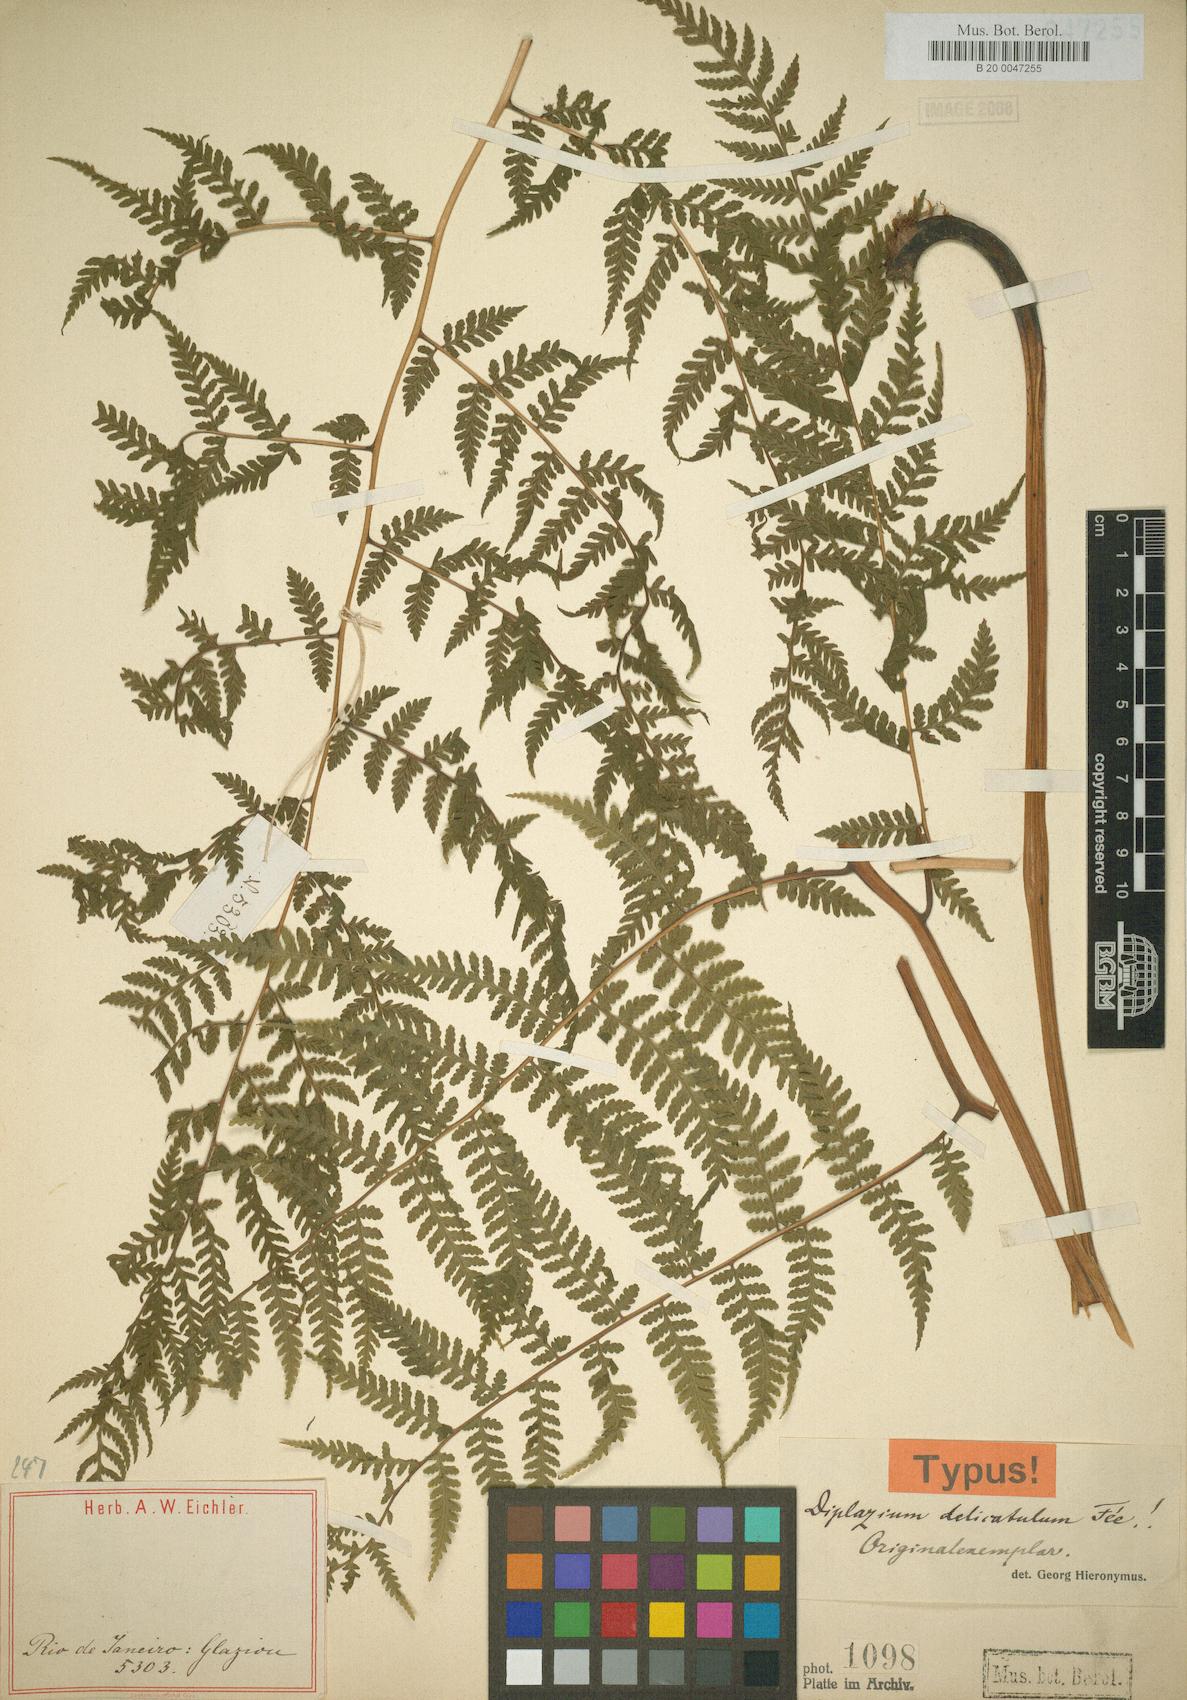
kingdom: Plantae
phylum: Tracheophyta
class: Polypodiopsida
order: Polypodiales
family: Athyriaceae
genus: Diplazium
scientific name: Diplazium herbaceum
